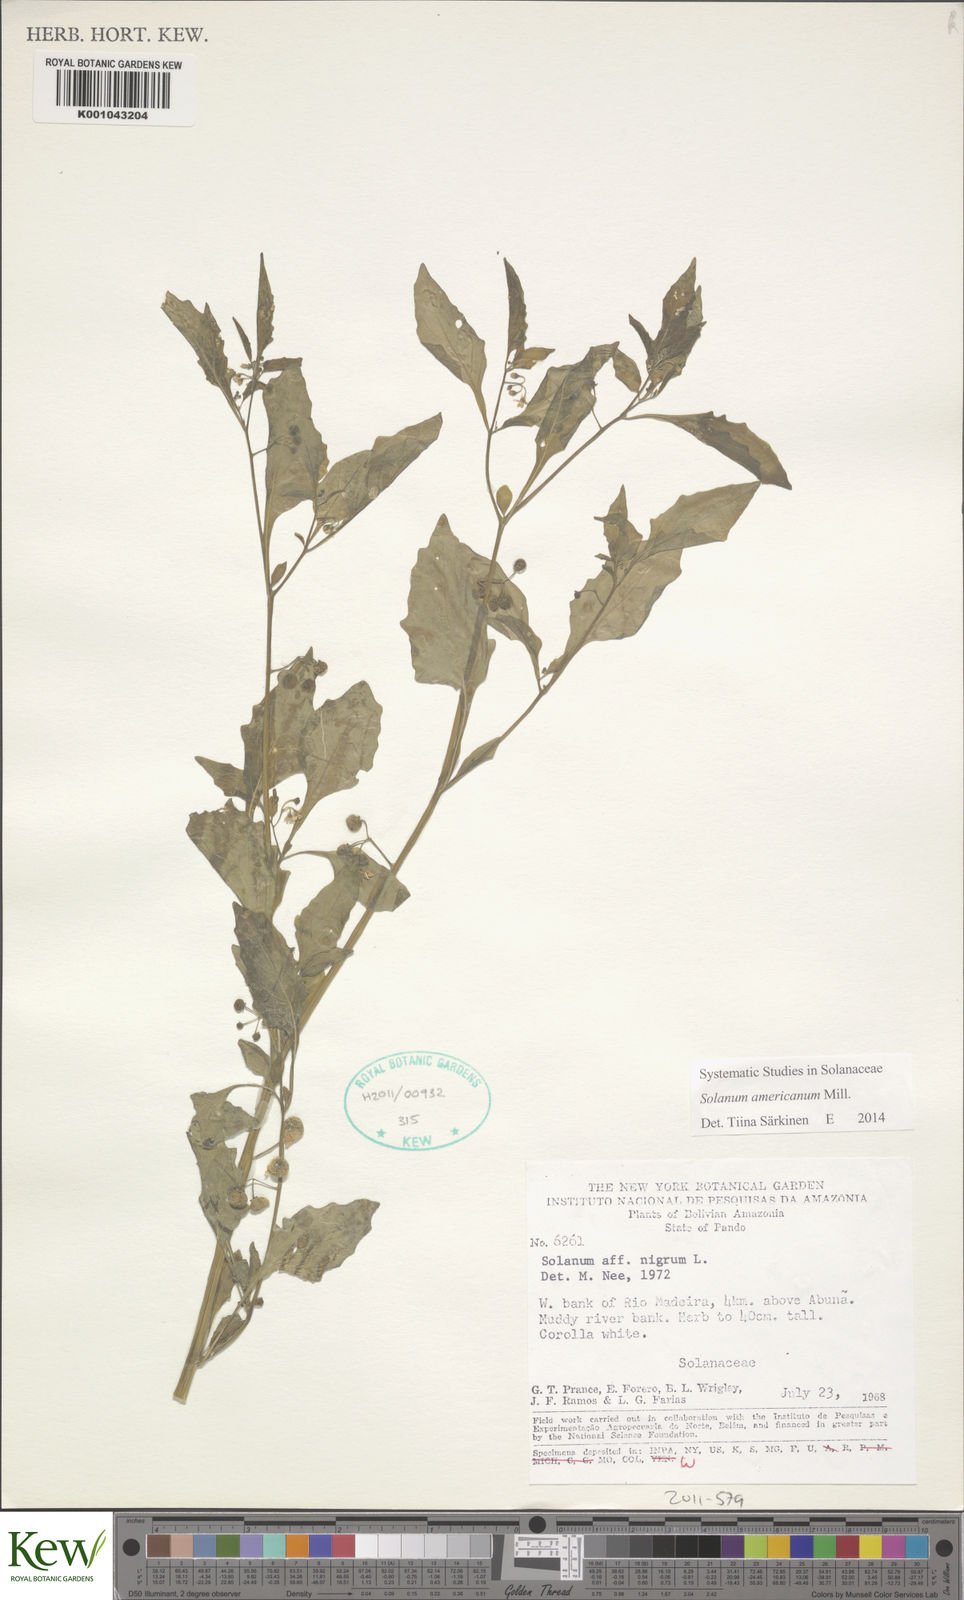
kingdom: Plantae
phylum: Tracheophyta
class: Magnoliopsida
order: Solanales
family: Solanaceae
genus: Solanum
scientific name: Solanum americanum
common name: American black nightshade
